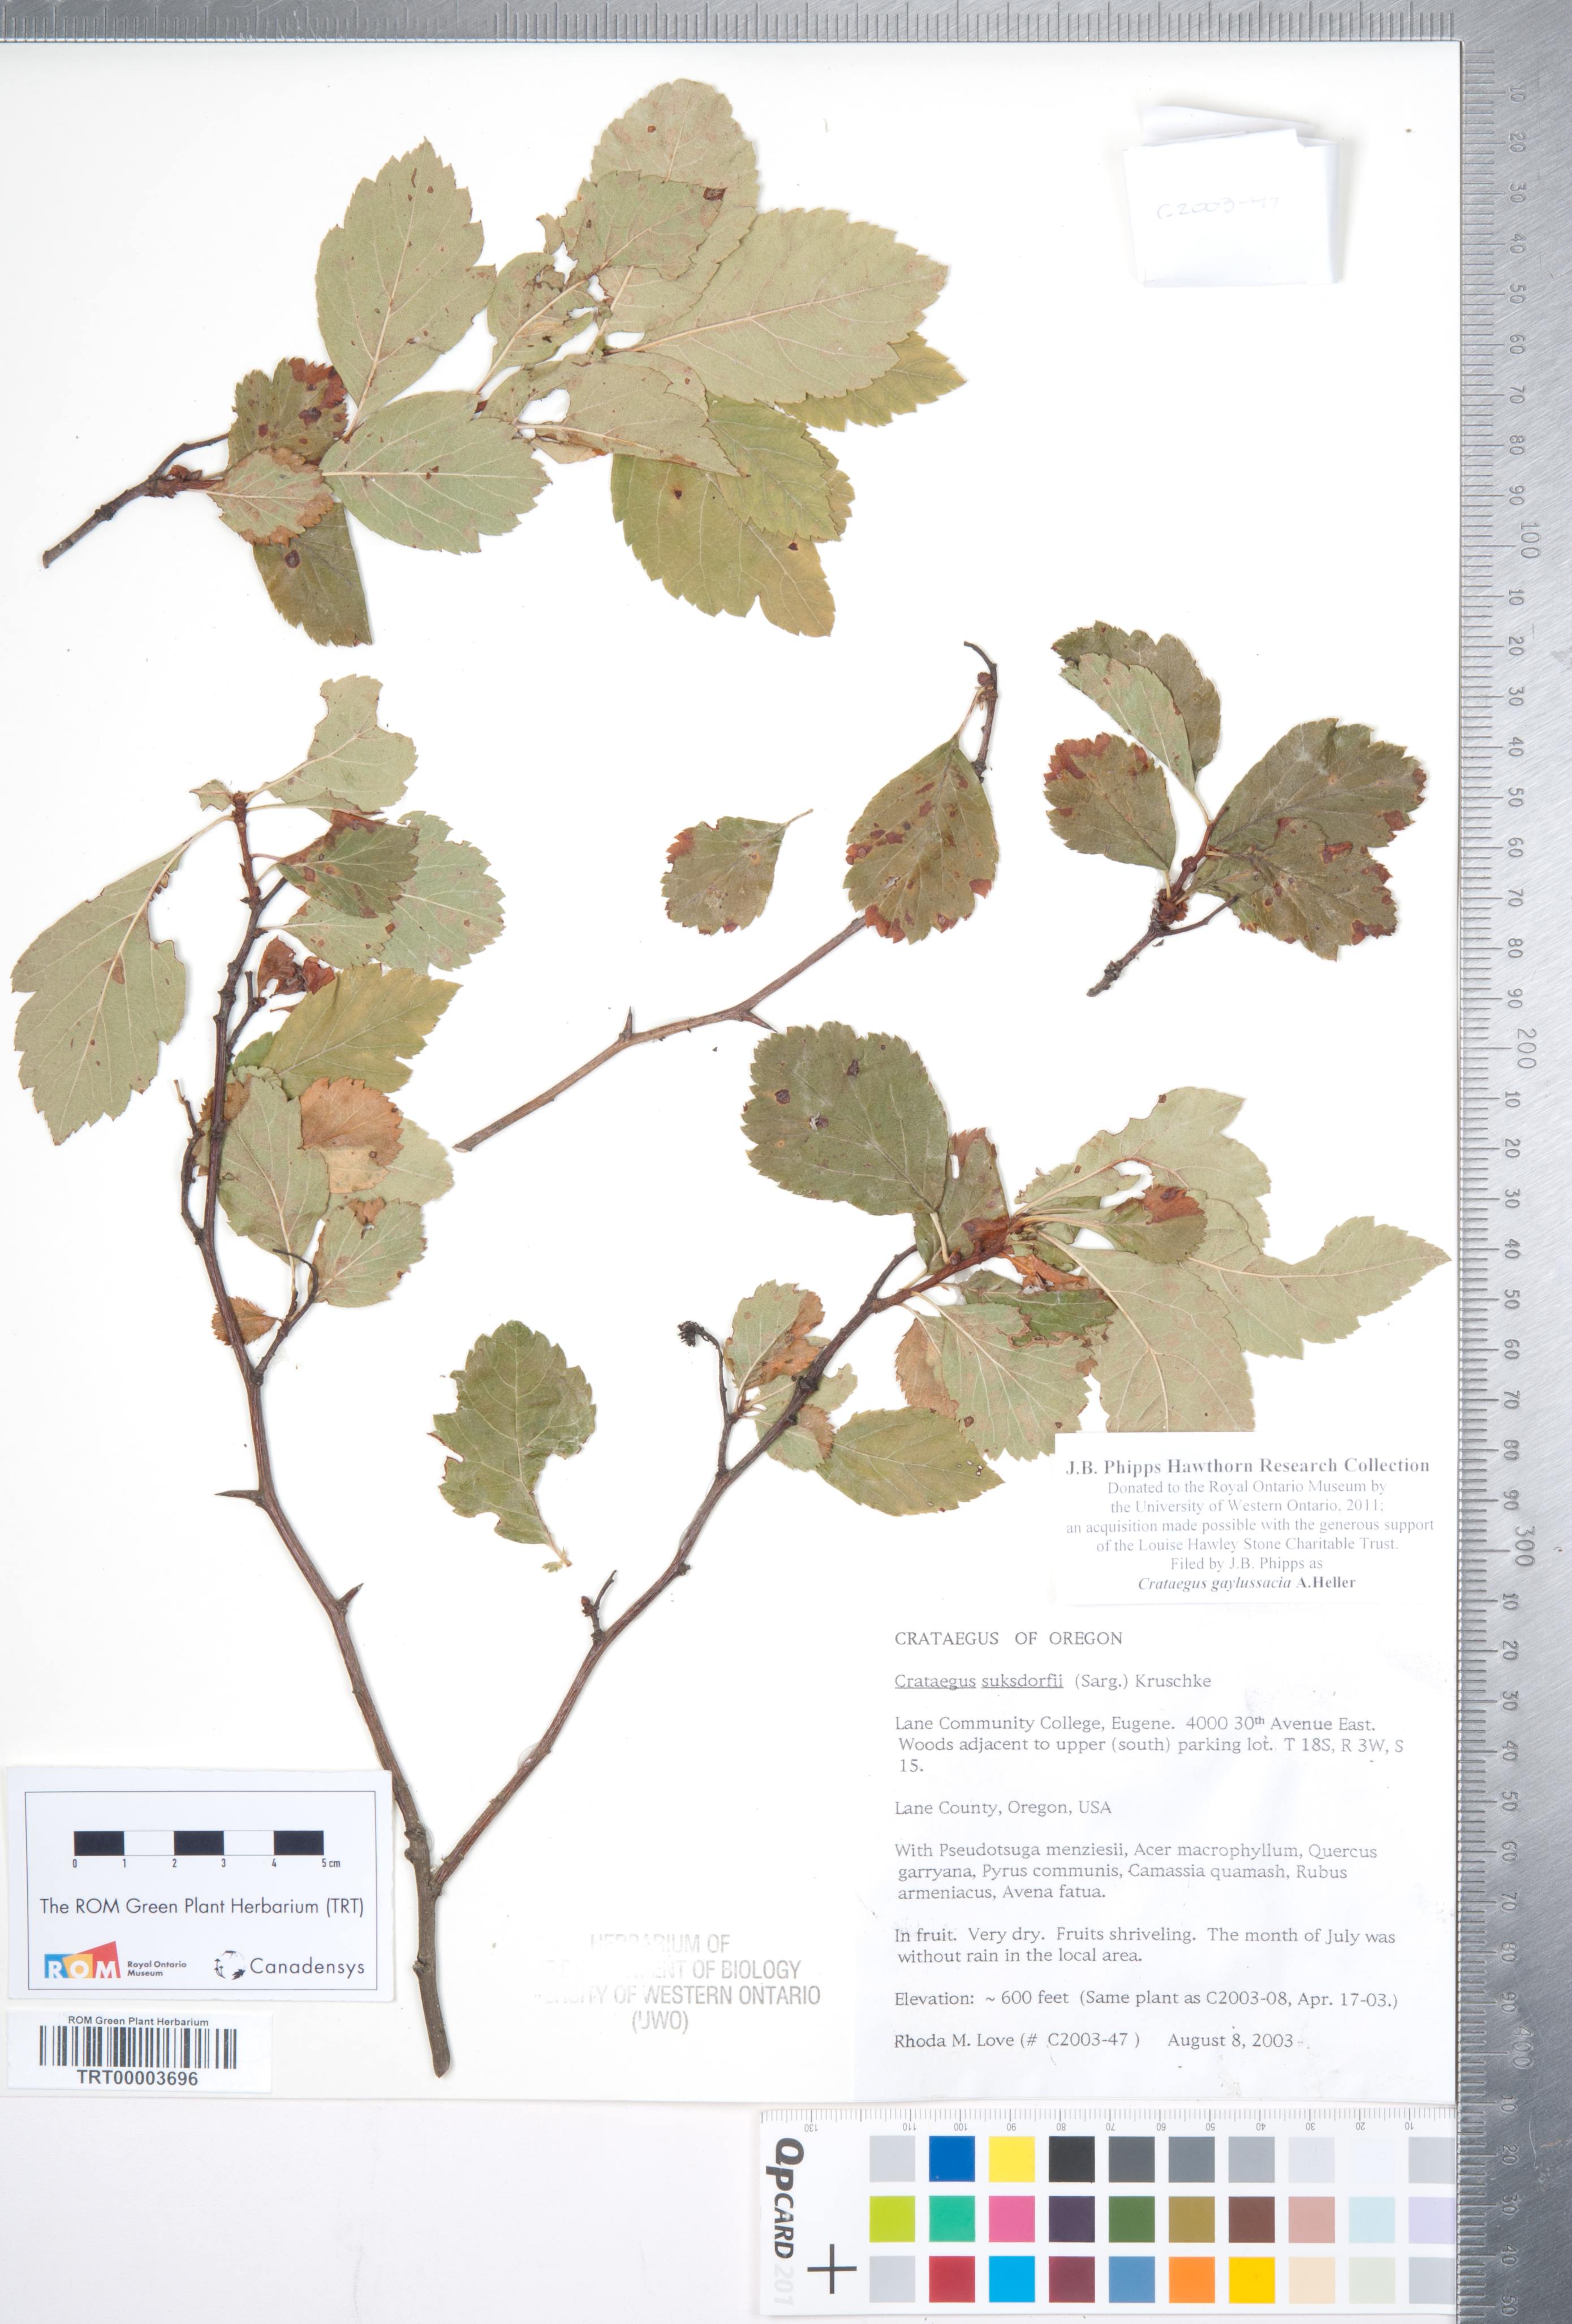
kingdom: Plantae
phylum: Tracheophyta
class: Magnoliopsida
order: Rosales
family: Rosaceae
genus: Crataegus
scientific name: Crataegus gaylussacia
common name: Huckleberry hawthorn
